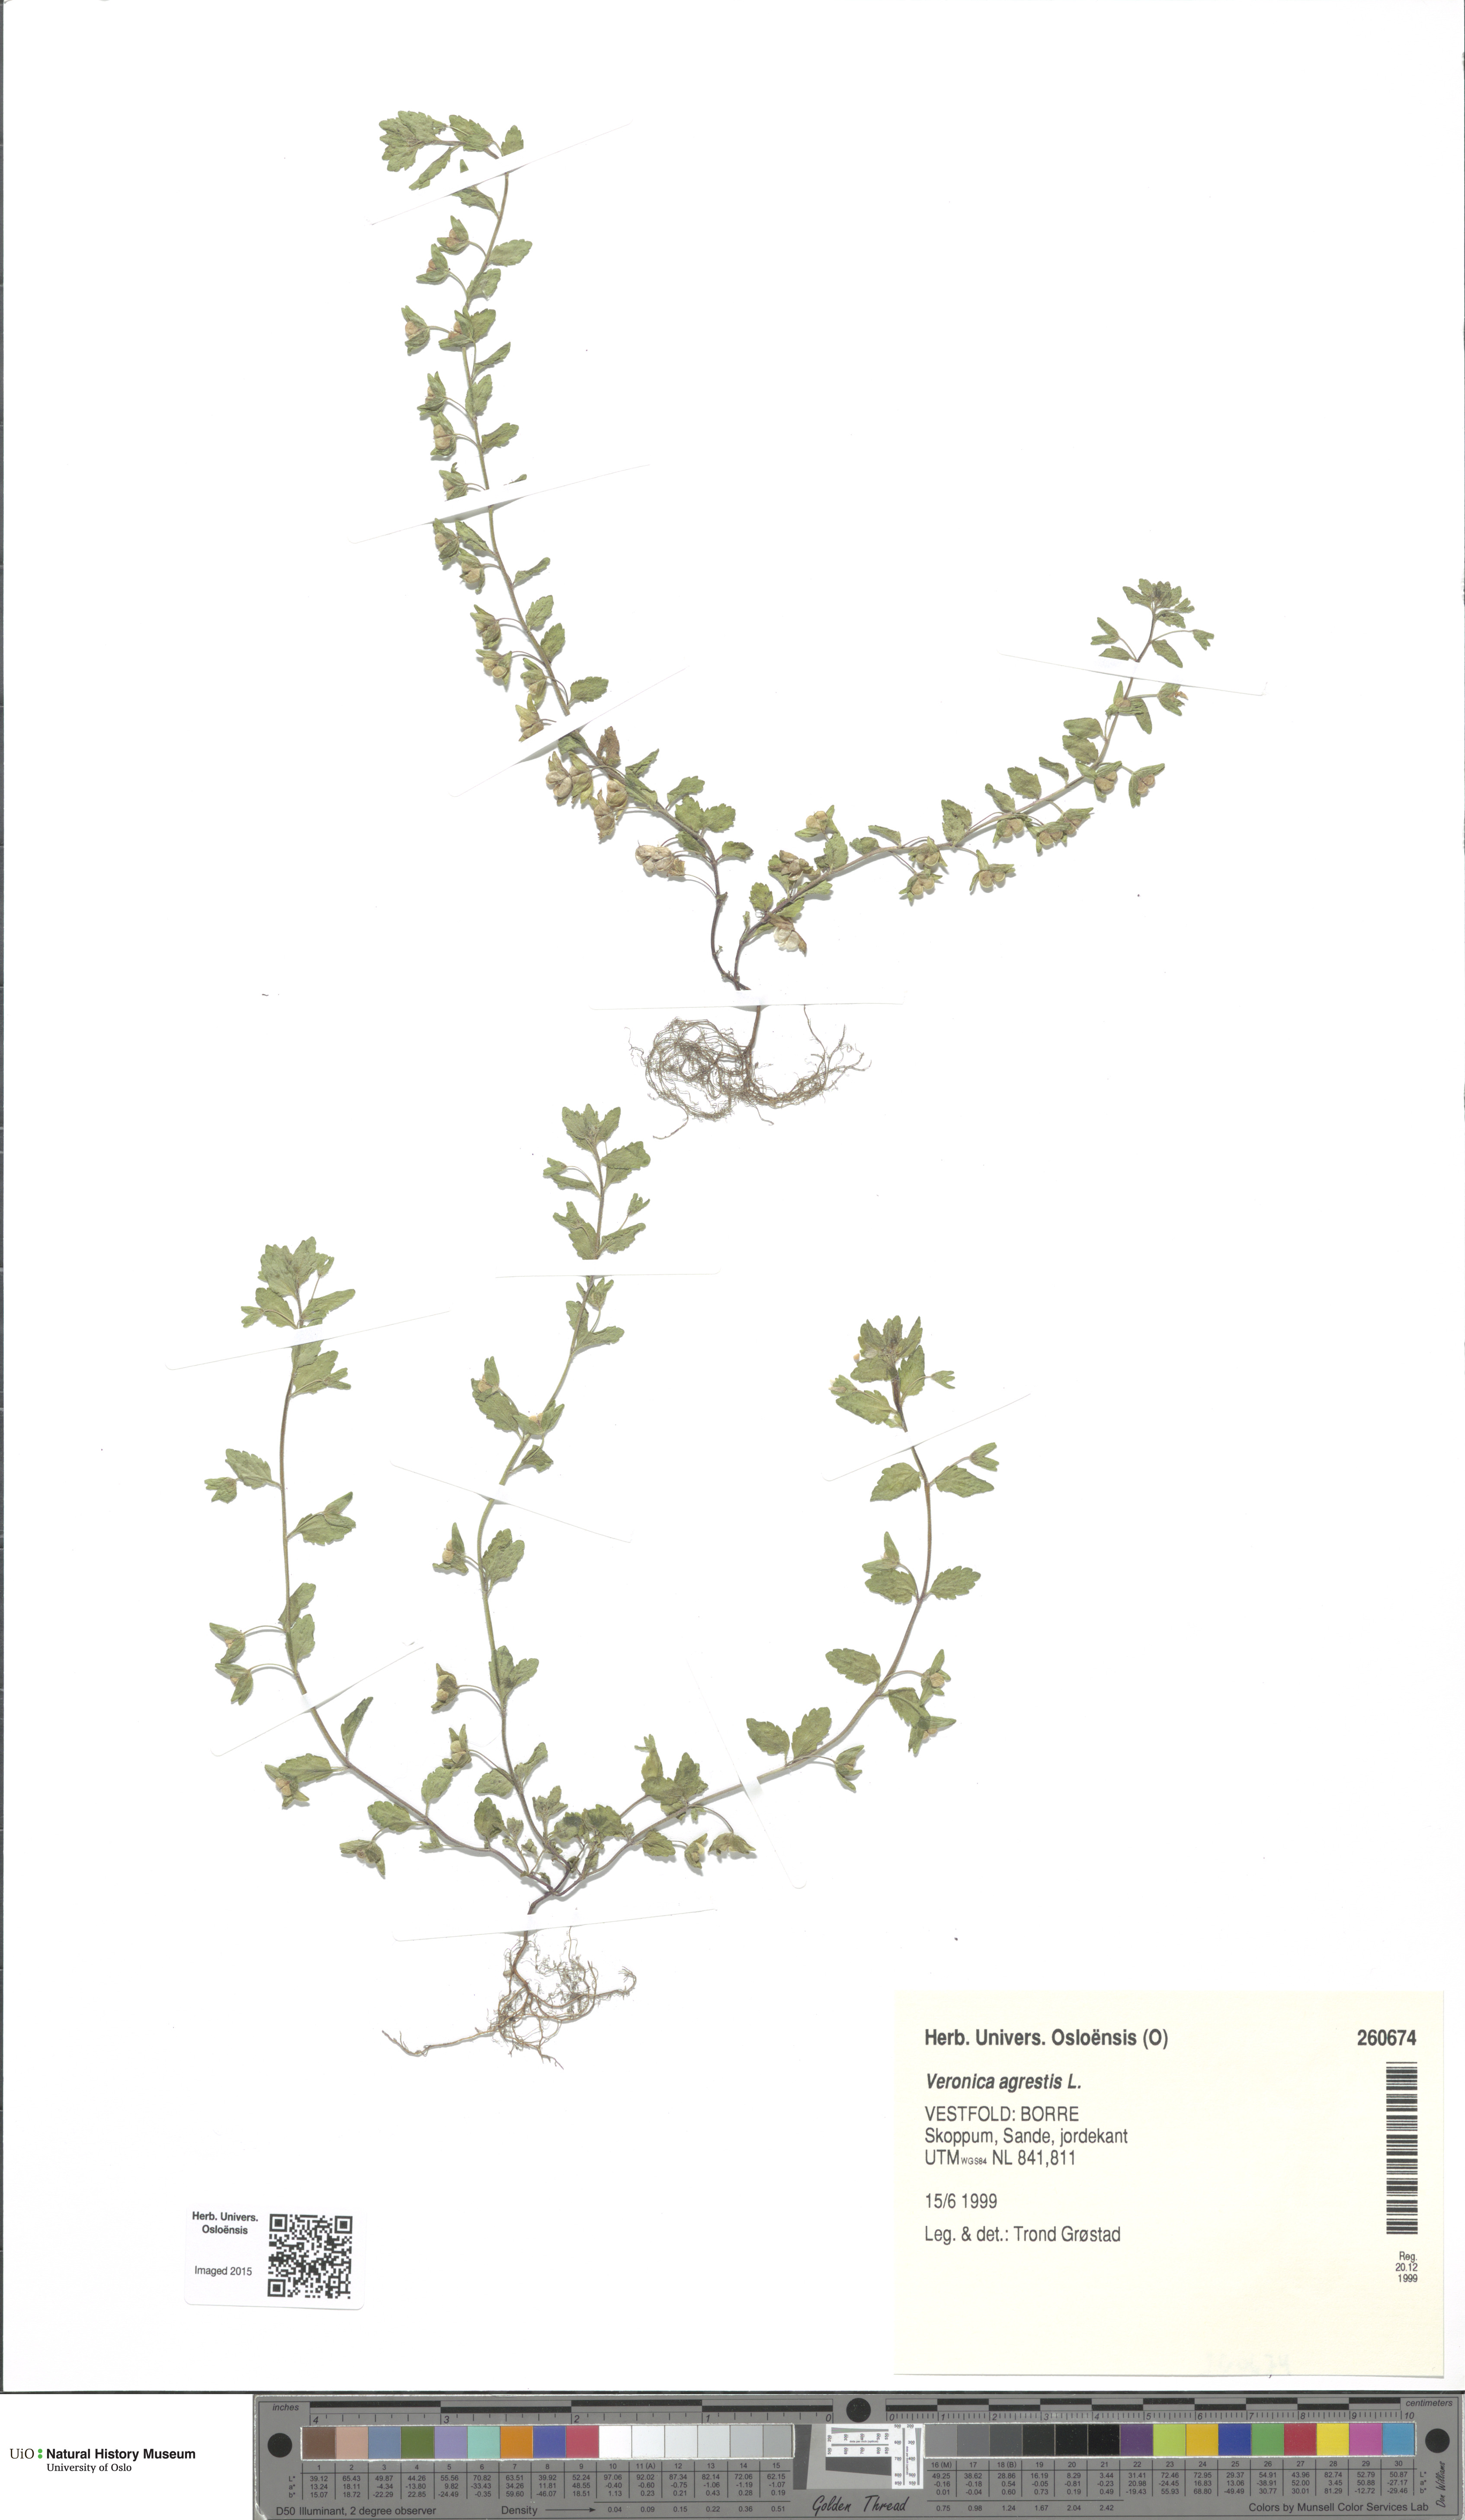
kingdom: Plantae
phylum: Tracheophyta
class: Magnoliopsida
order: Lamiales
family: Plantaginaceae
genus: Veronica
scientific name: Veronica agrestis
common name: Green field-speedwell
